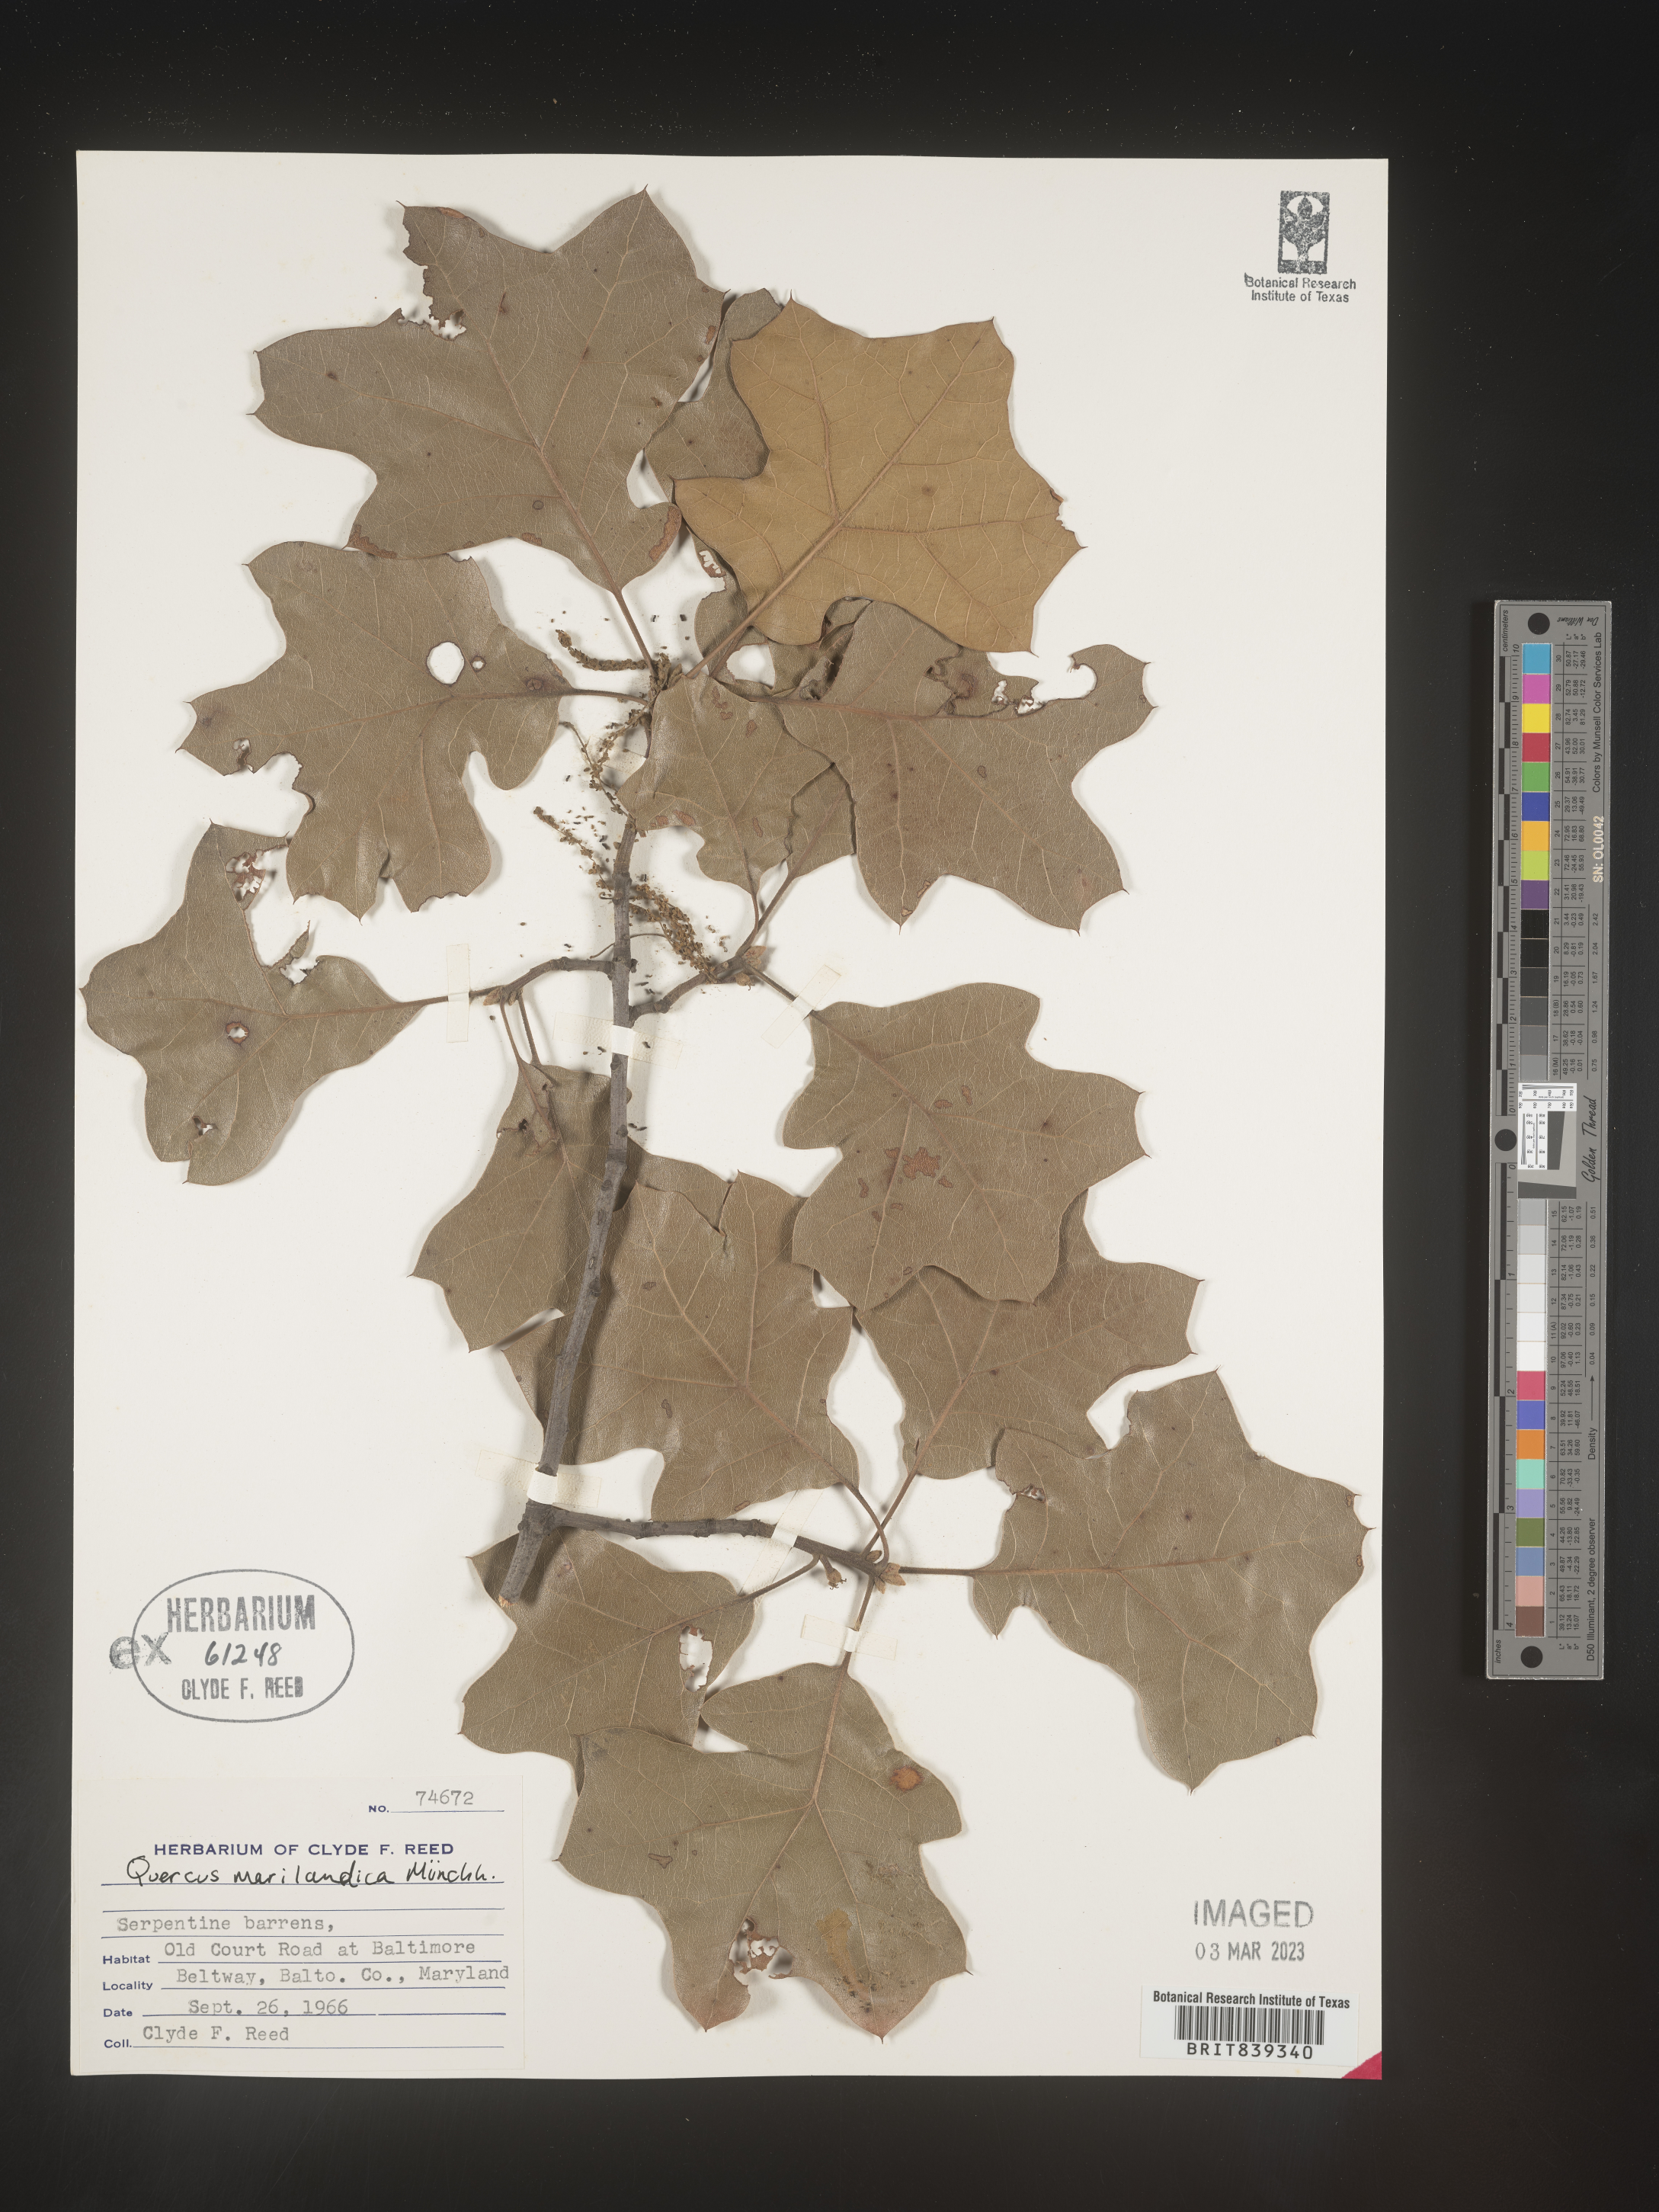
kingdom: Plantae
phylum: Tracheophyta
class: Magnoliopsida
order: Fagales
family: Fagaceae
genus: Quercus
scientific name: Quercus marilandica
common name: Blackjack oak
